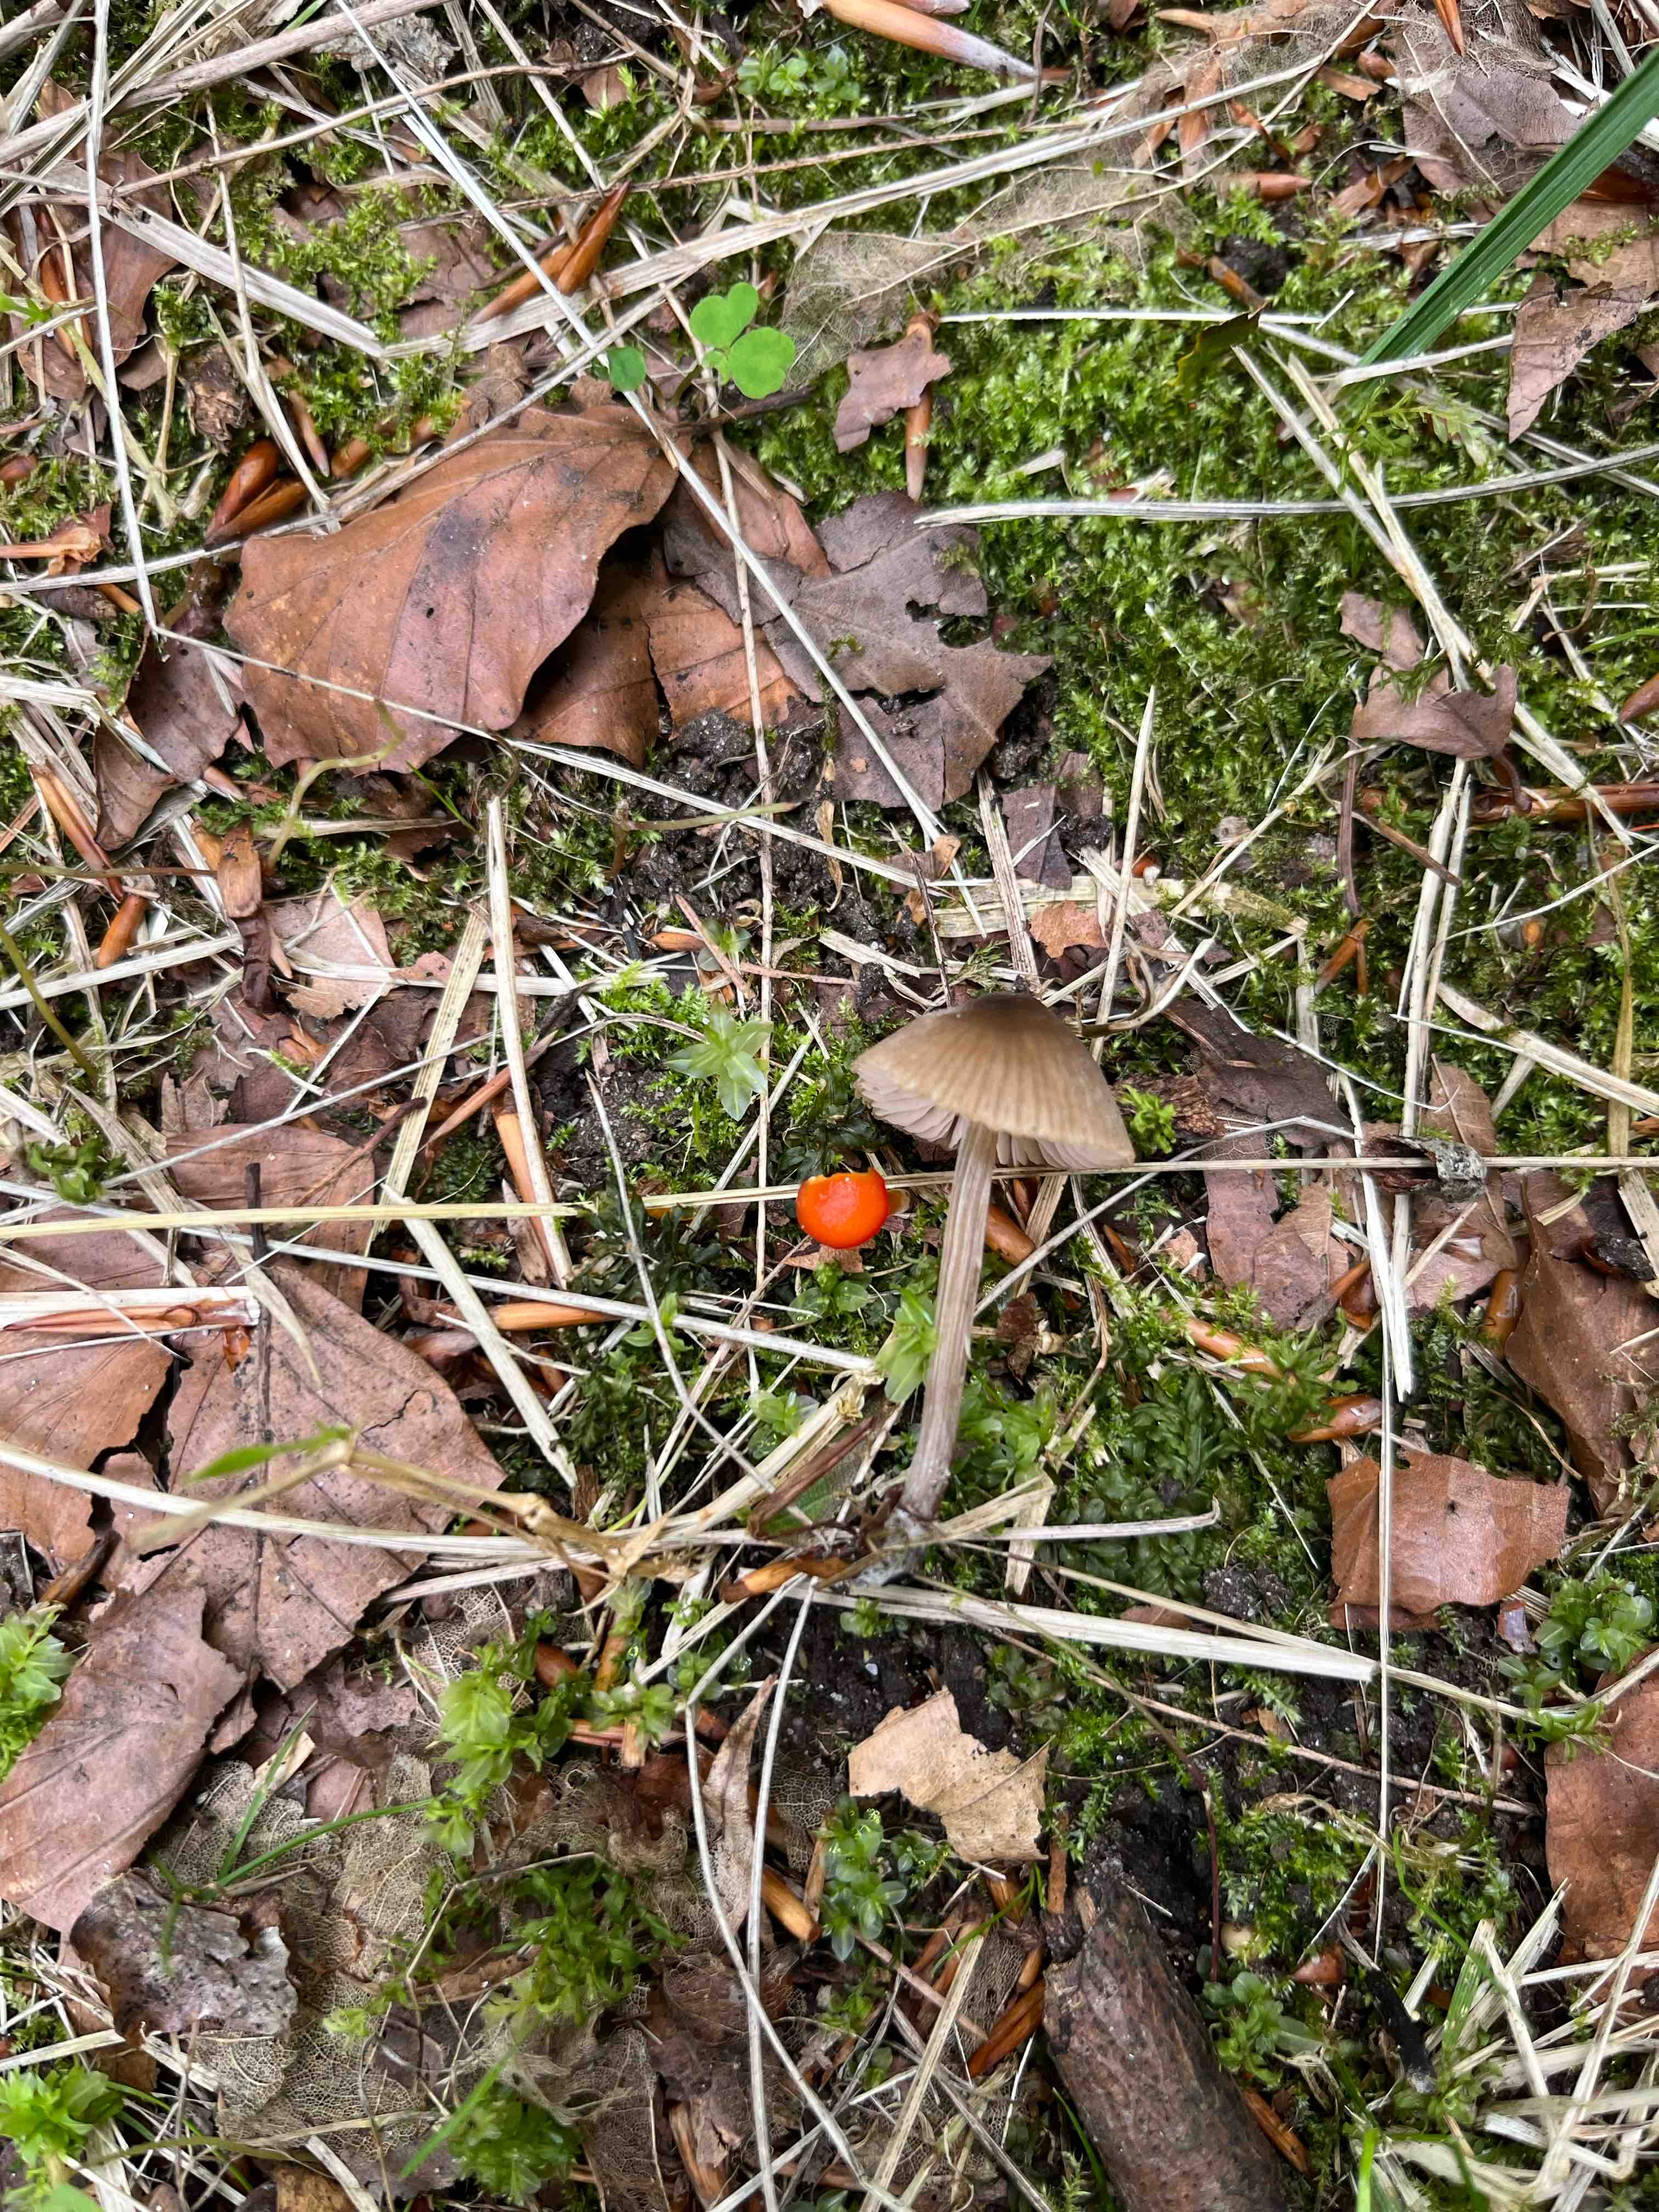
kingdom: Fungi
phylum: Basidiomycota
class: Agaricomycetes
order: Agaricales
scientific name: Agaricales
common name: champignonordenen
